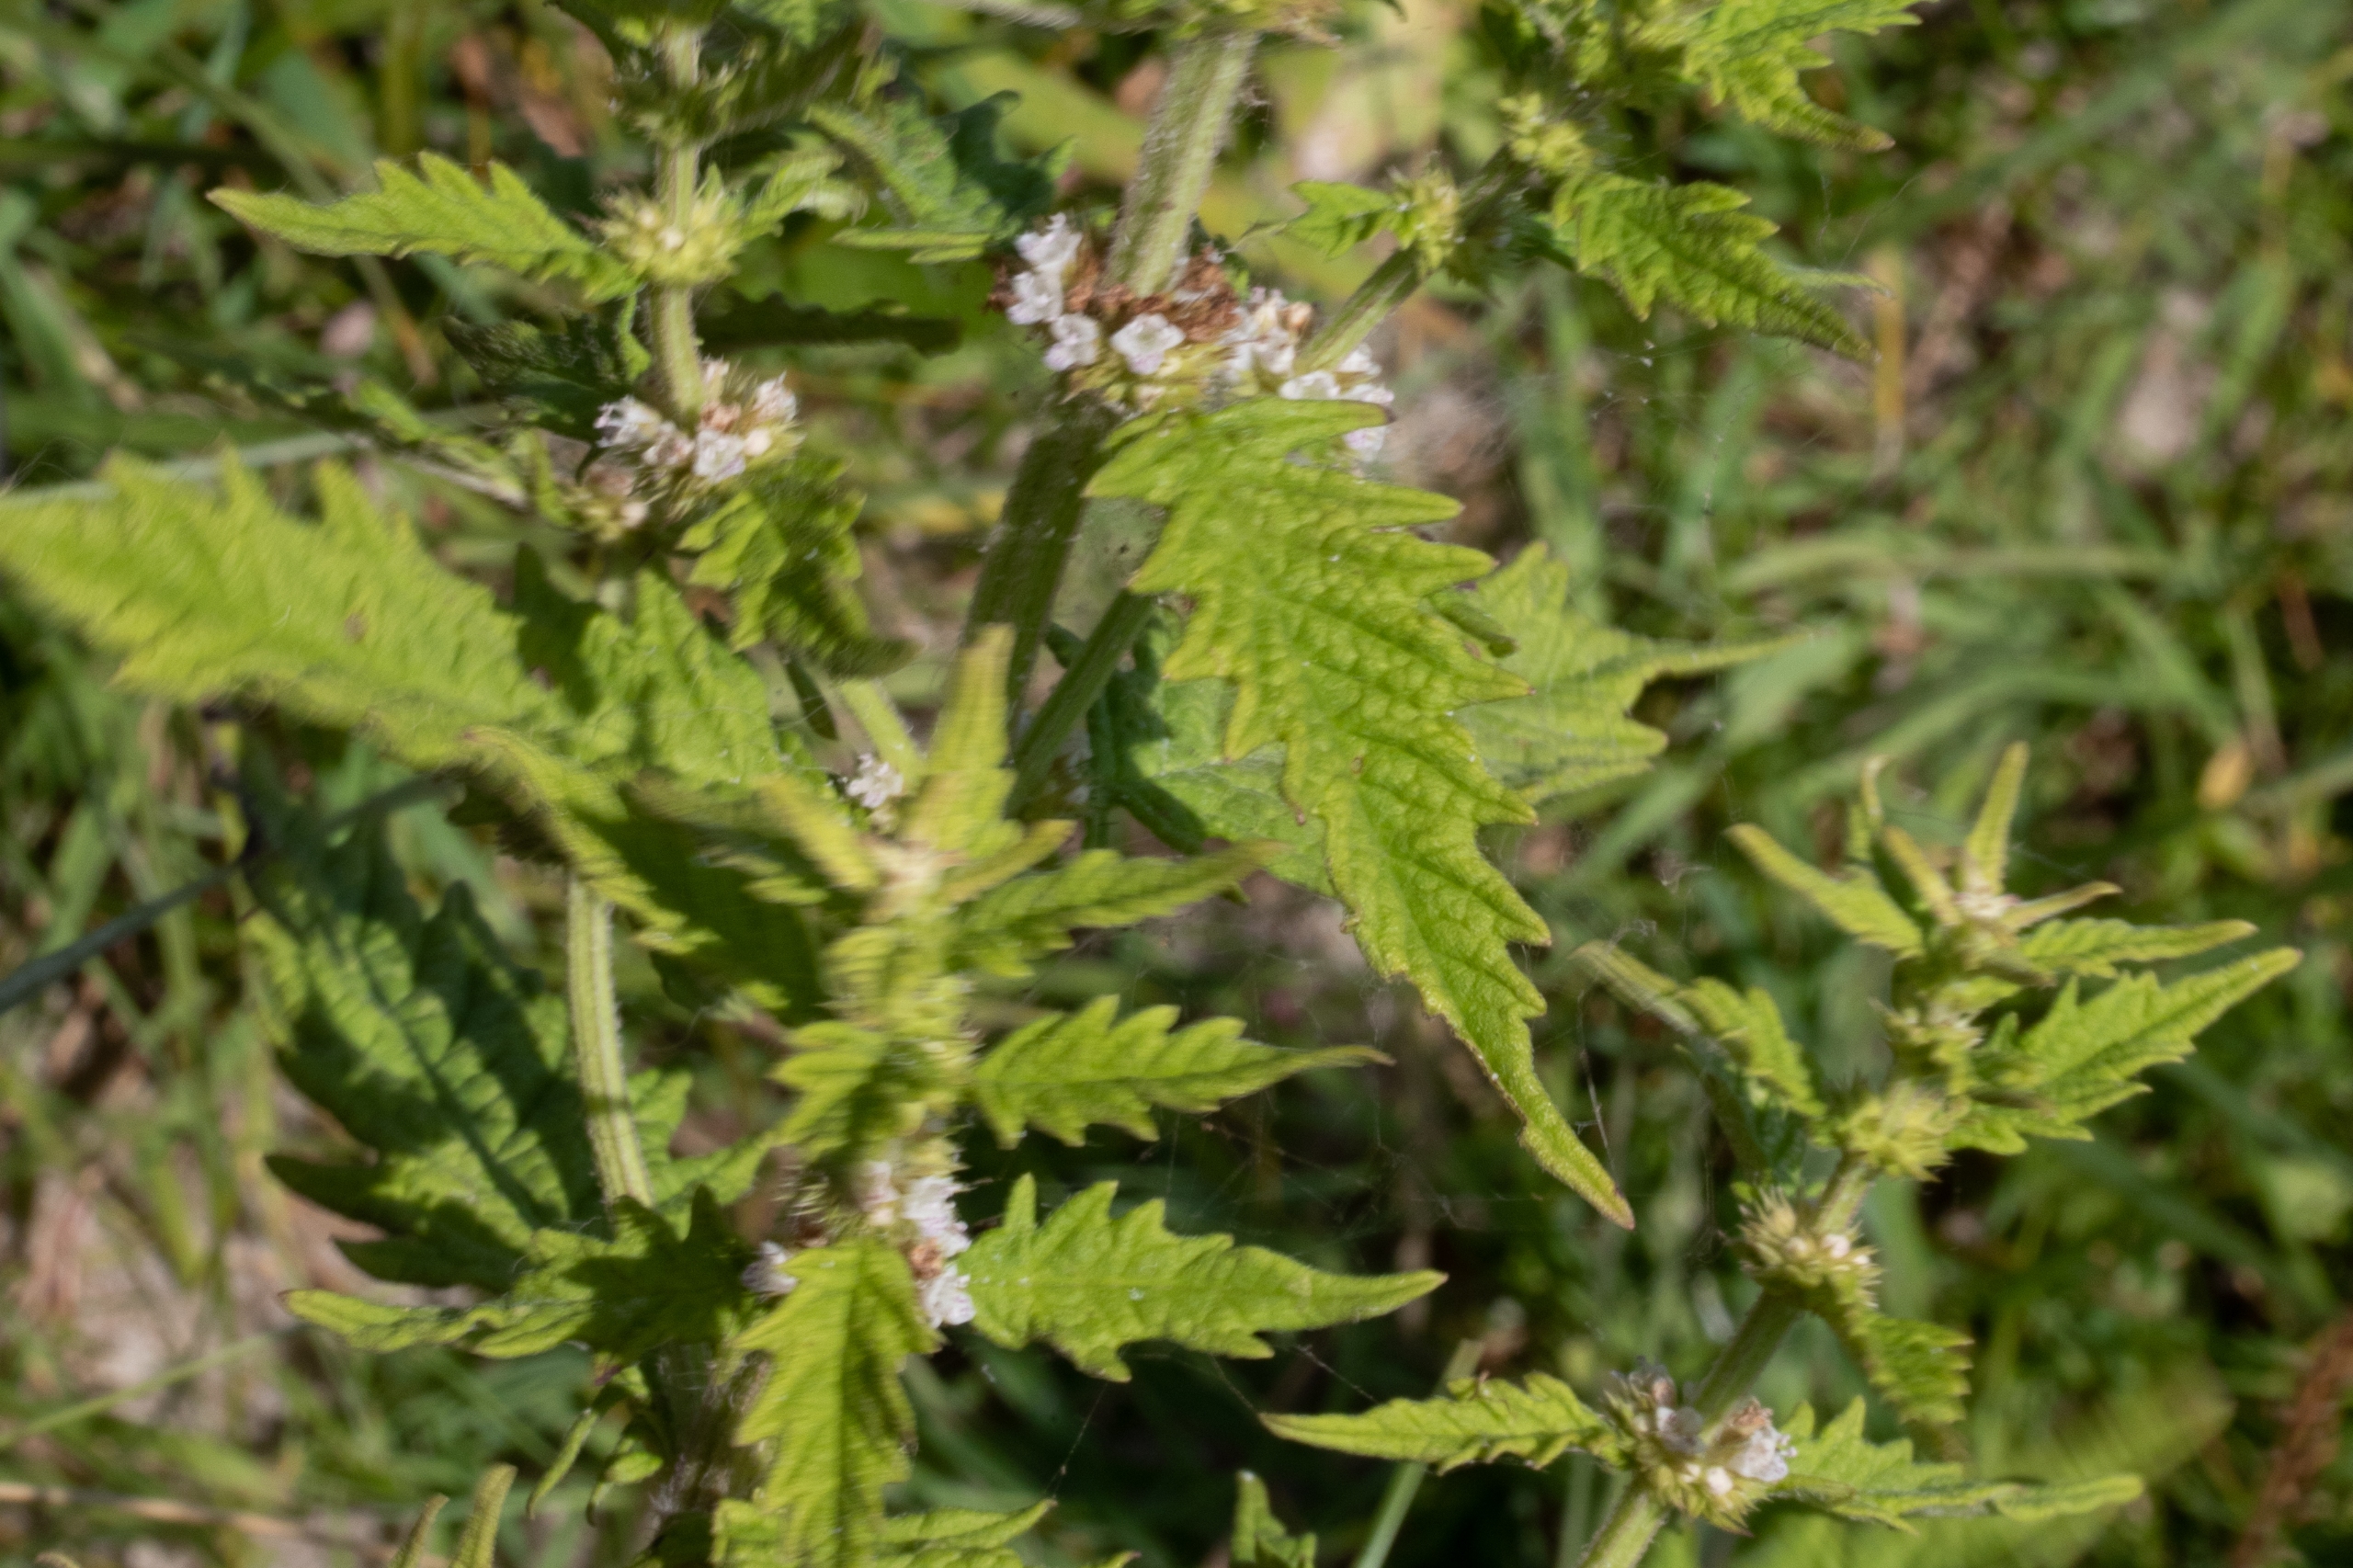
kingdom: Plantae
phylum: Tracheophyta
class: Magnoliopsida
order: Lamiales
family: Lamiaceae
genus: Lycopus
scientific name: Lycopus europaeus
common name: Sværtevæld
